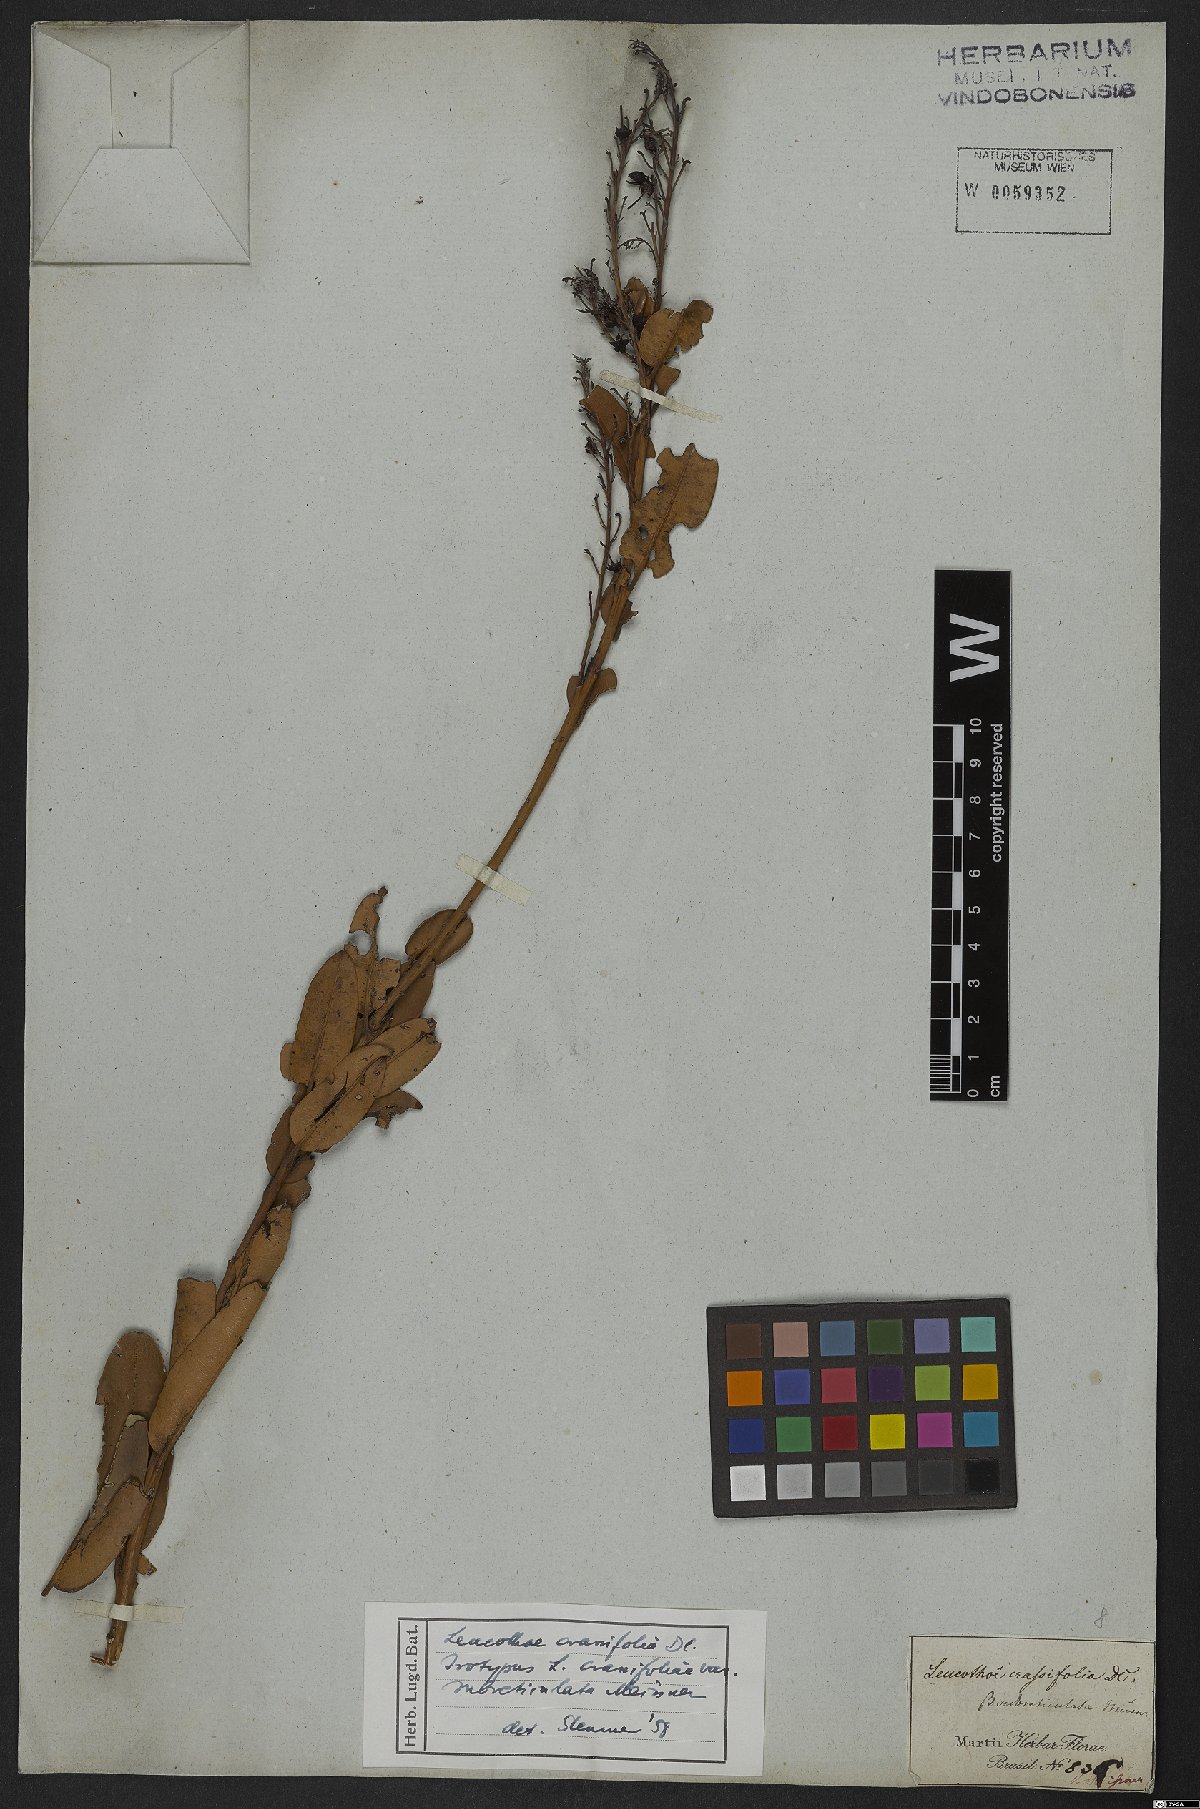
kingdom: Plantae
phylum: Tracheophyta
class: Magnoliopsida
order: Ericales
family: Ericaceae
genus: Agarista
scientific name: Agarista coriifolia
